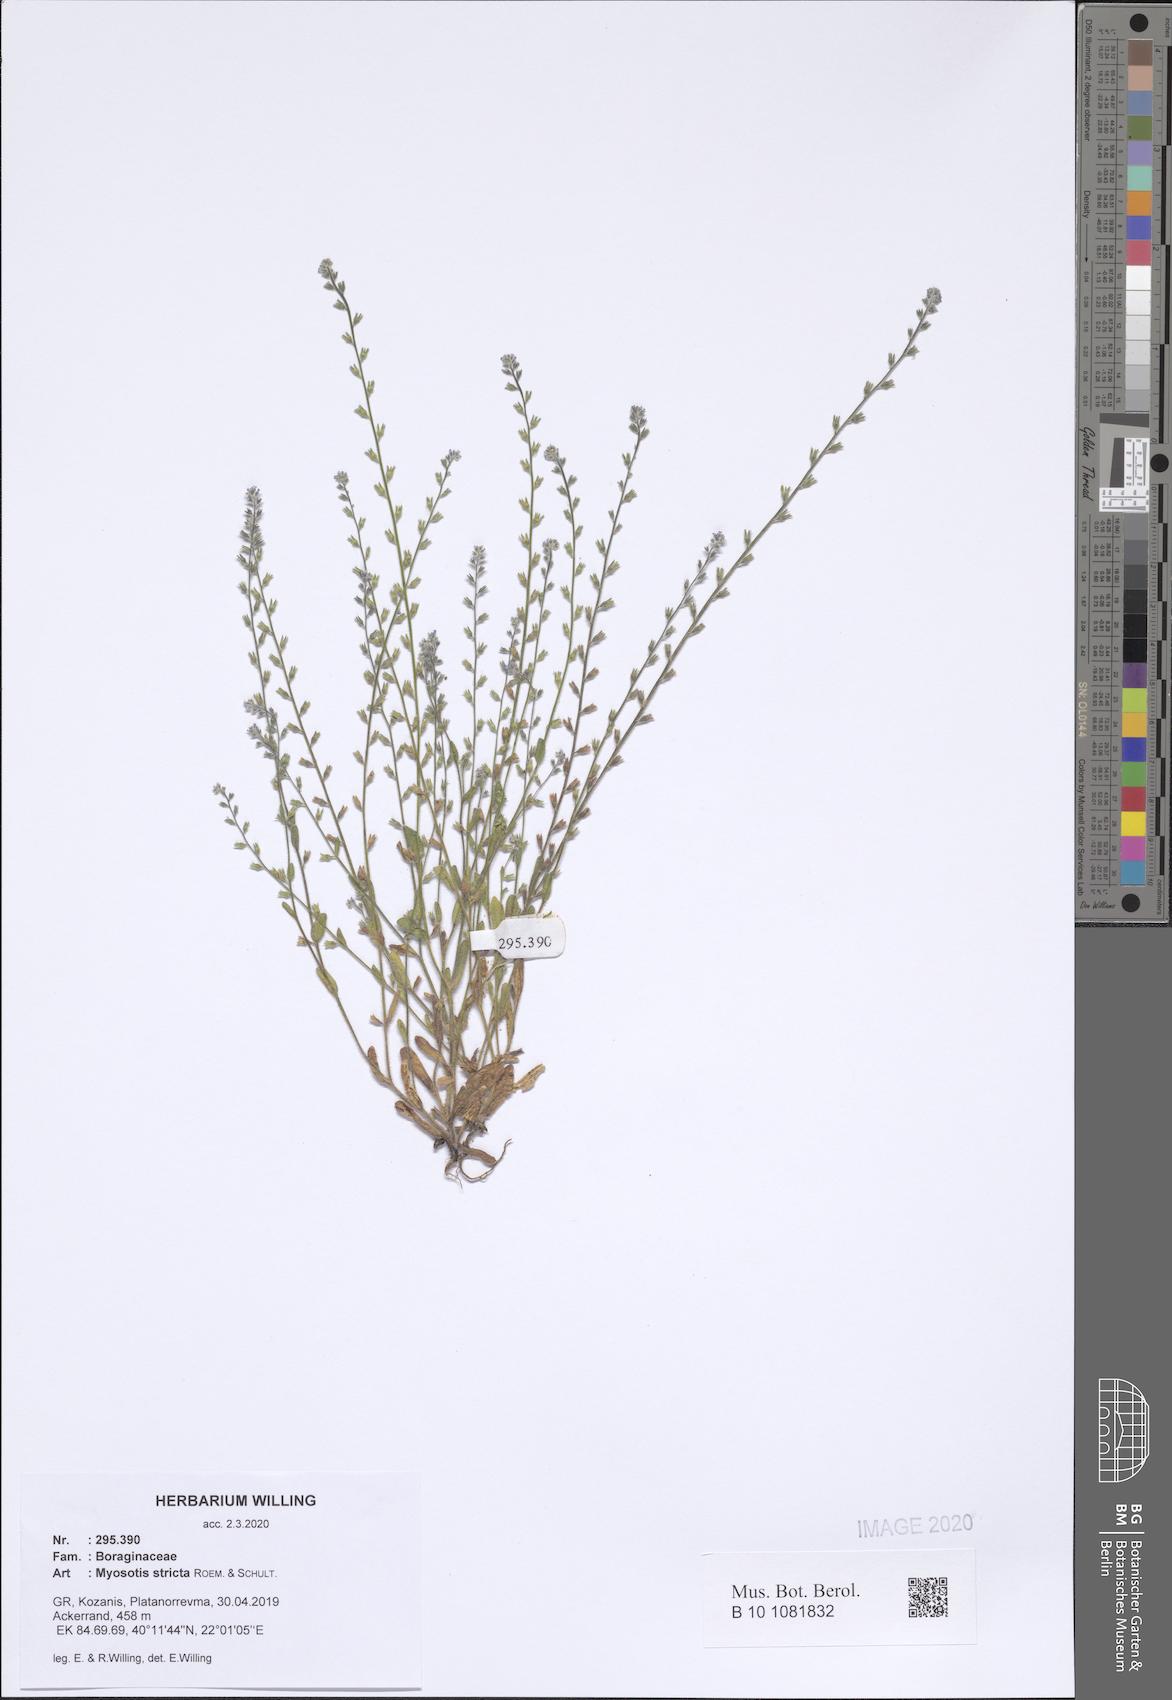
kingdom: Plantae
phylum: Tracheophyta
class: Magnoliopsida
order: Boraginales
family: Boraginaceae
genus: Myosotis
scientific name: Myosotis stricta
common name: Strict forget-me-not
